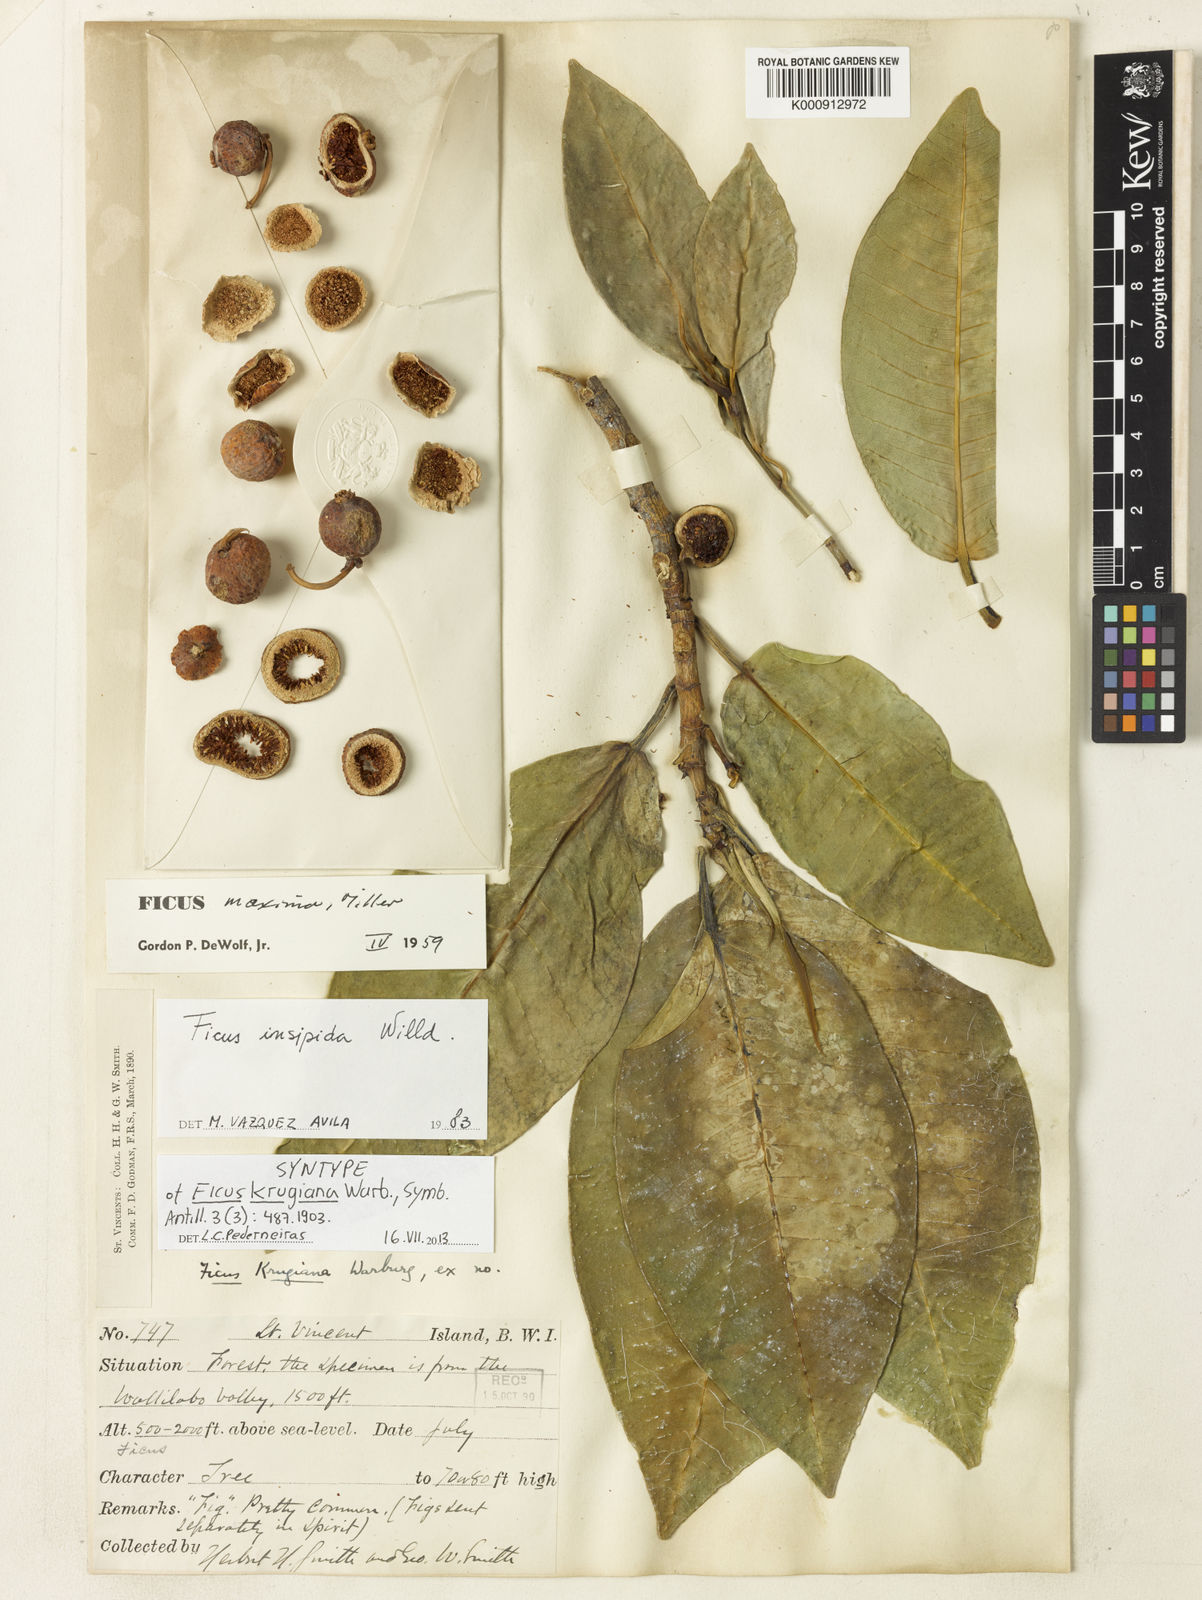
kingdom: Plantae
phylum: Tracheophyta
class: Magnoliopsida
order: Rosales
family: Moraceae
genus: Ficus
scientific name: Ficus insipida
